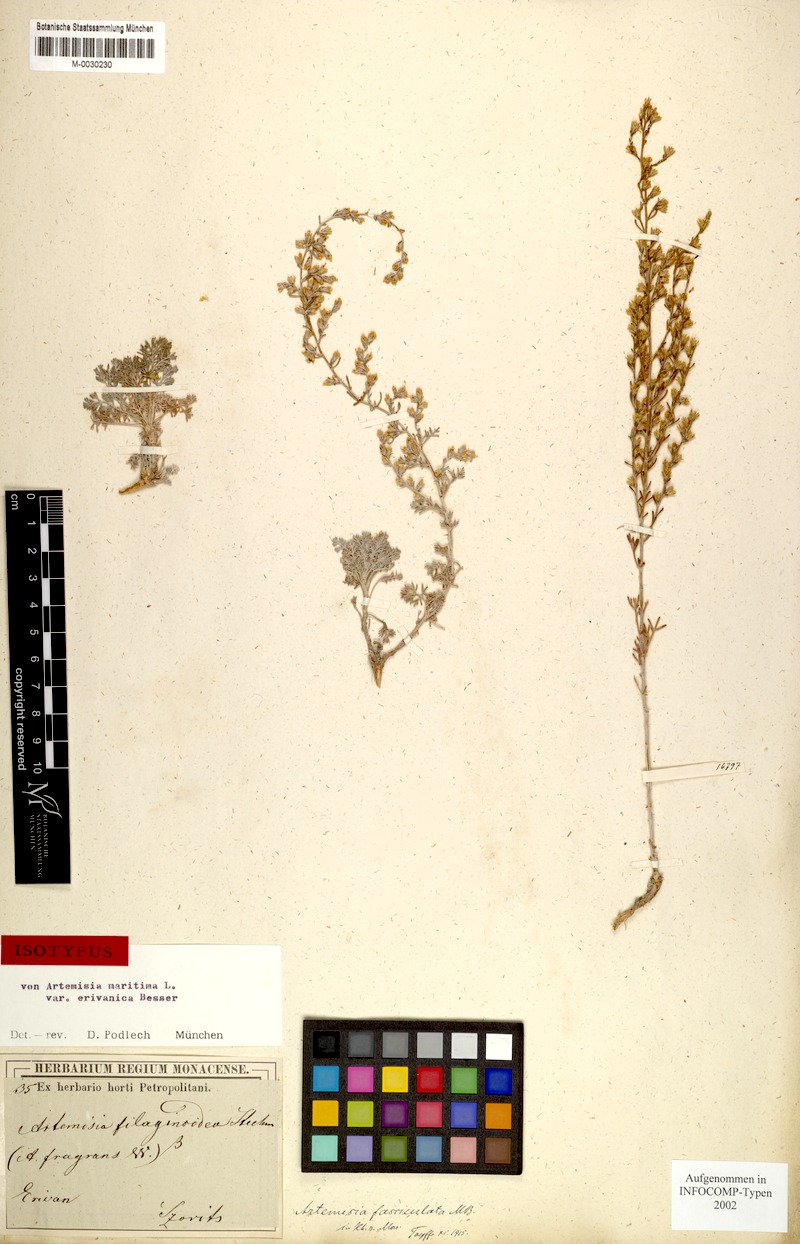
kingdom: Plantae
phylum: Tracheophyta
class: Magnoliopsida
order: Asterales
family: Asteraceae
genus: Artemisia
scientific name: Artemisia fragrans
